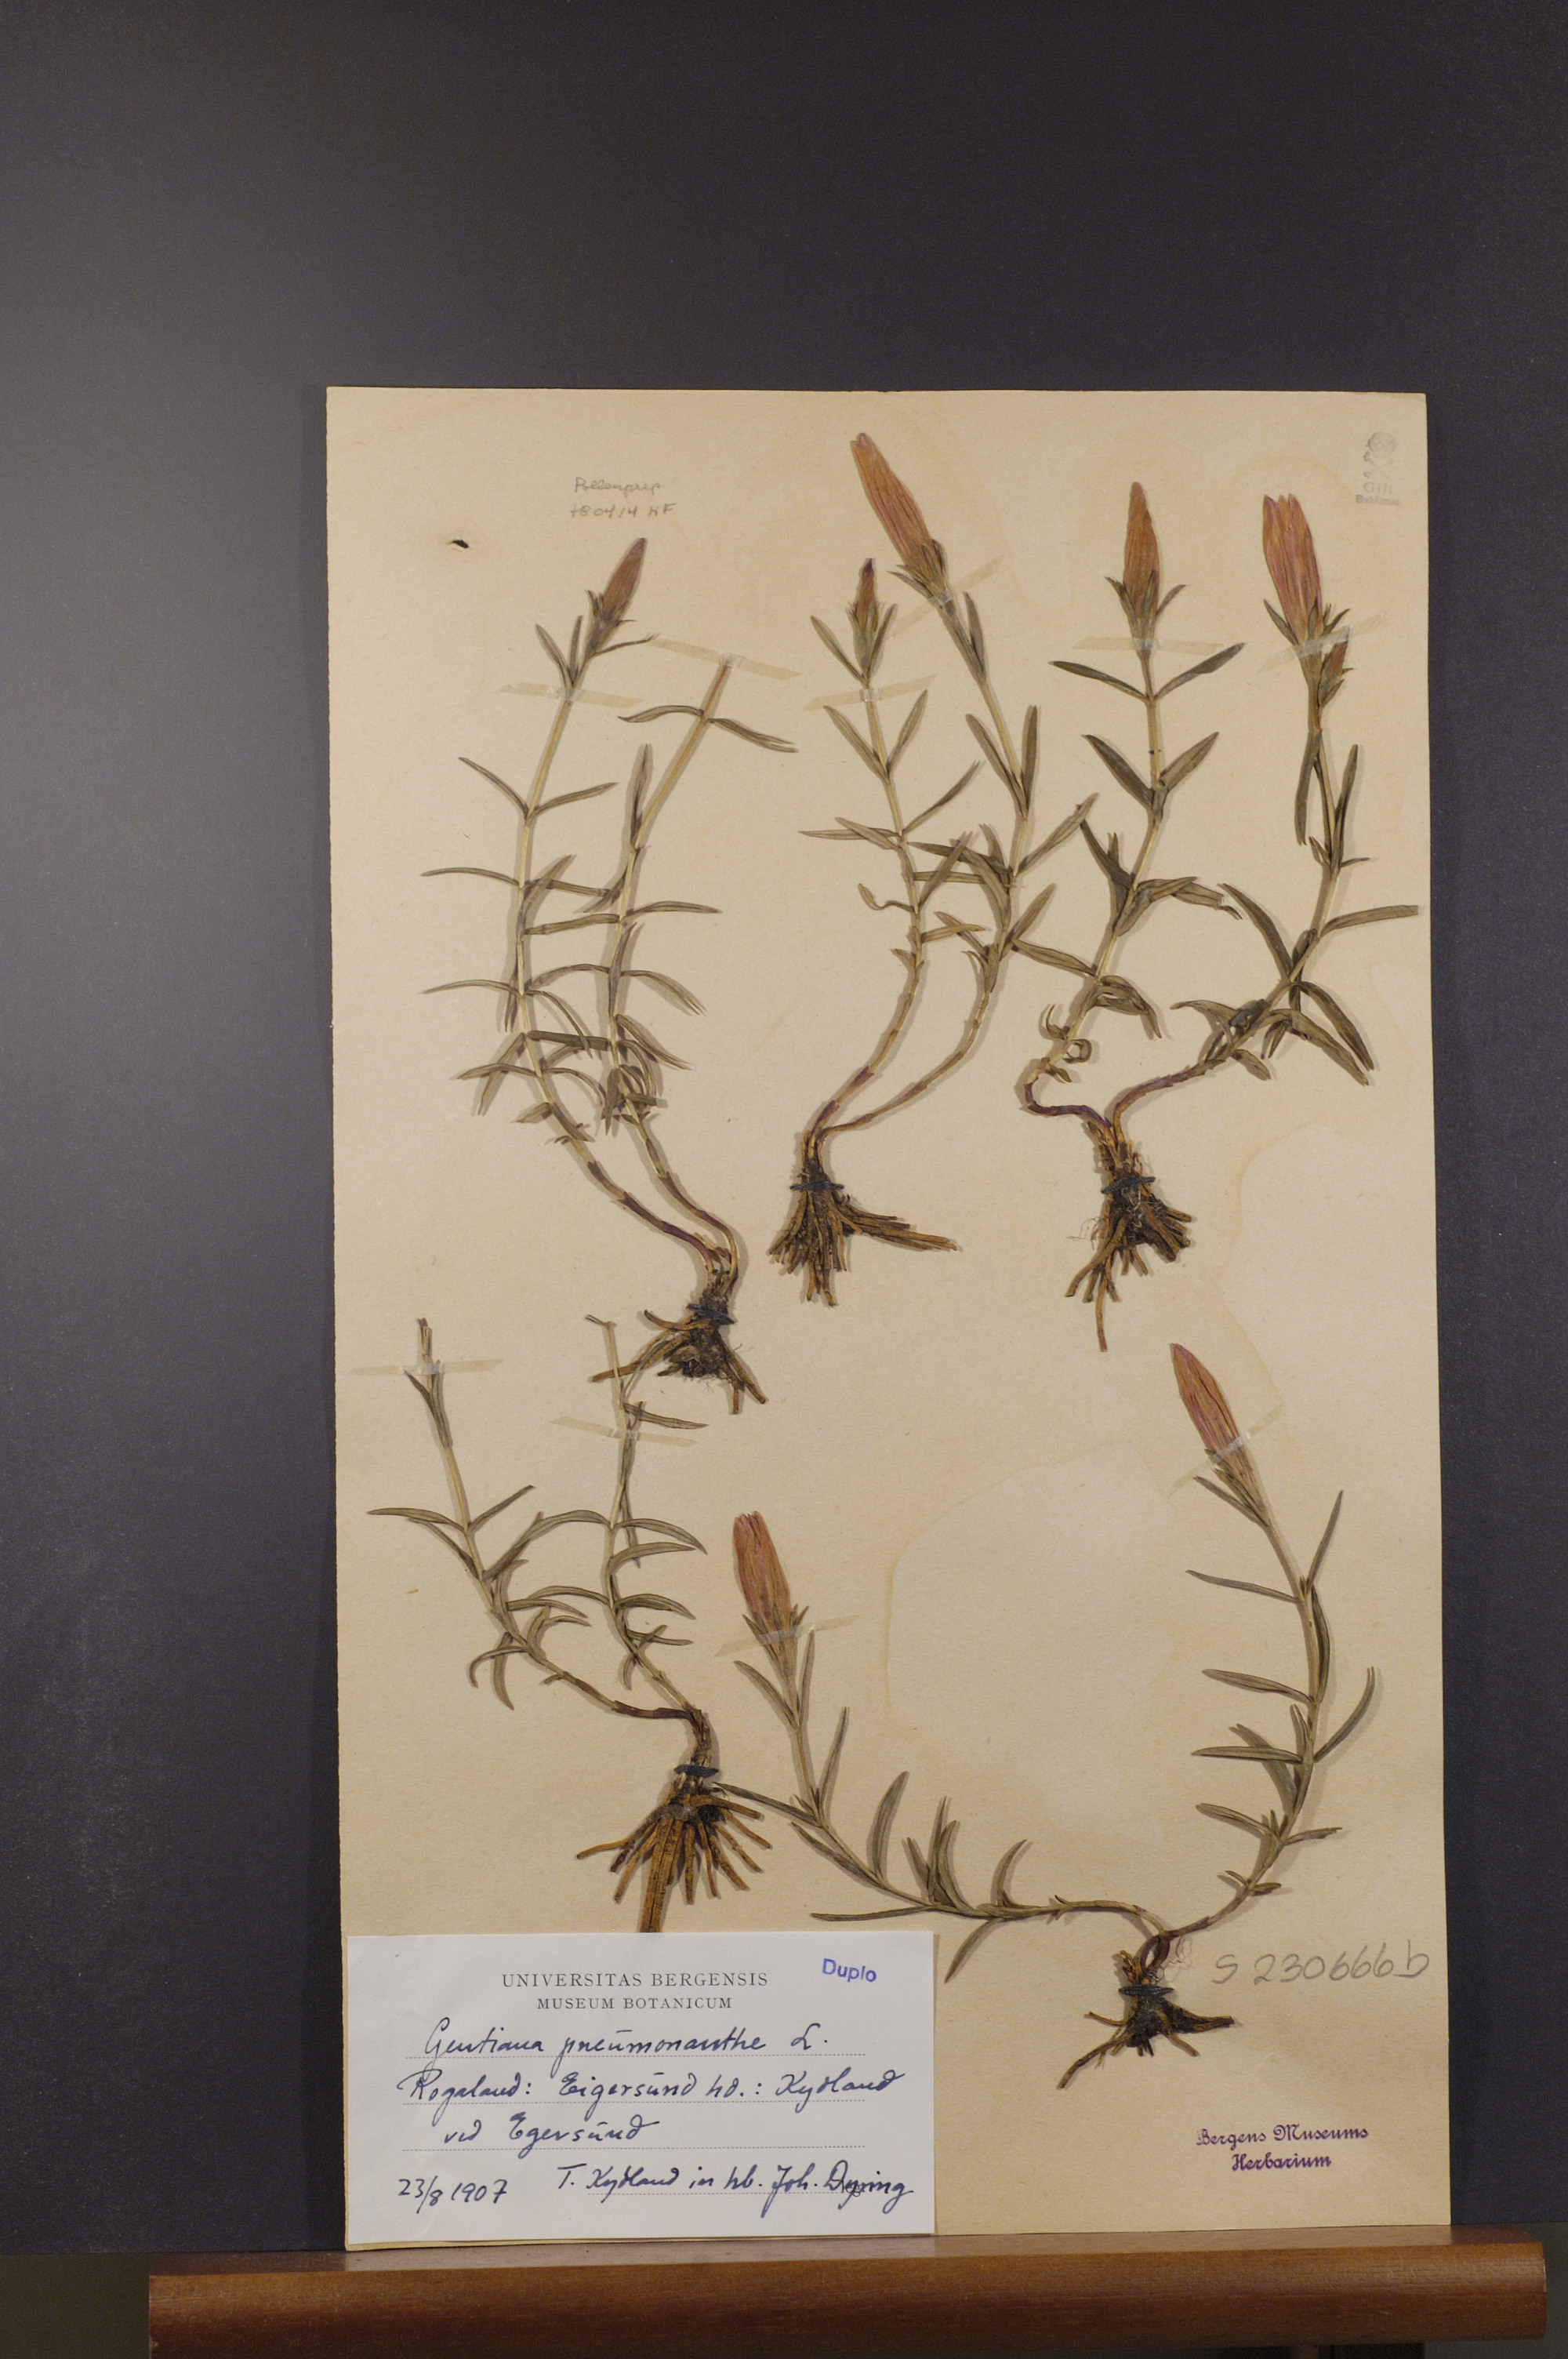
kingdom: Plantae
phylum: Tracheophyta
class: Magnoliopsida
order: Gentianales
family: Gentianaceae
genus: Gentiana
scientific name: Gentiana pneumonanthe
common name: Marsh gentian
